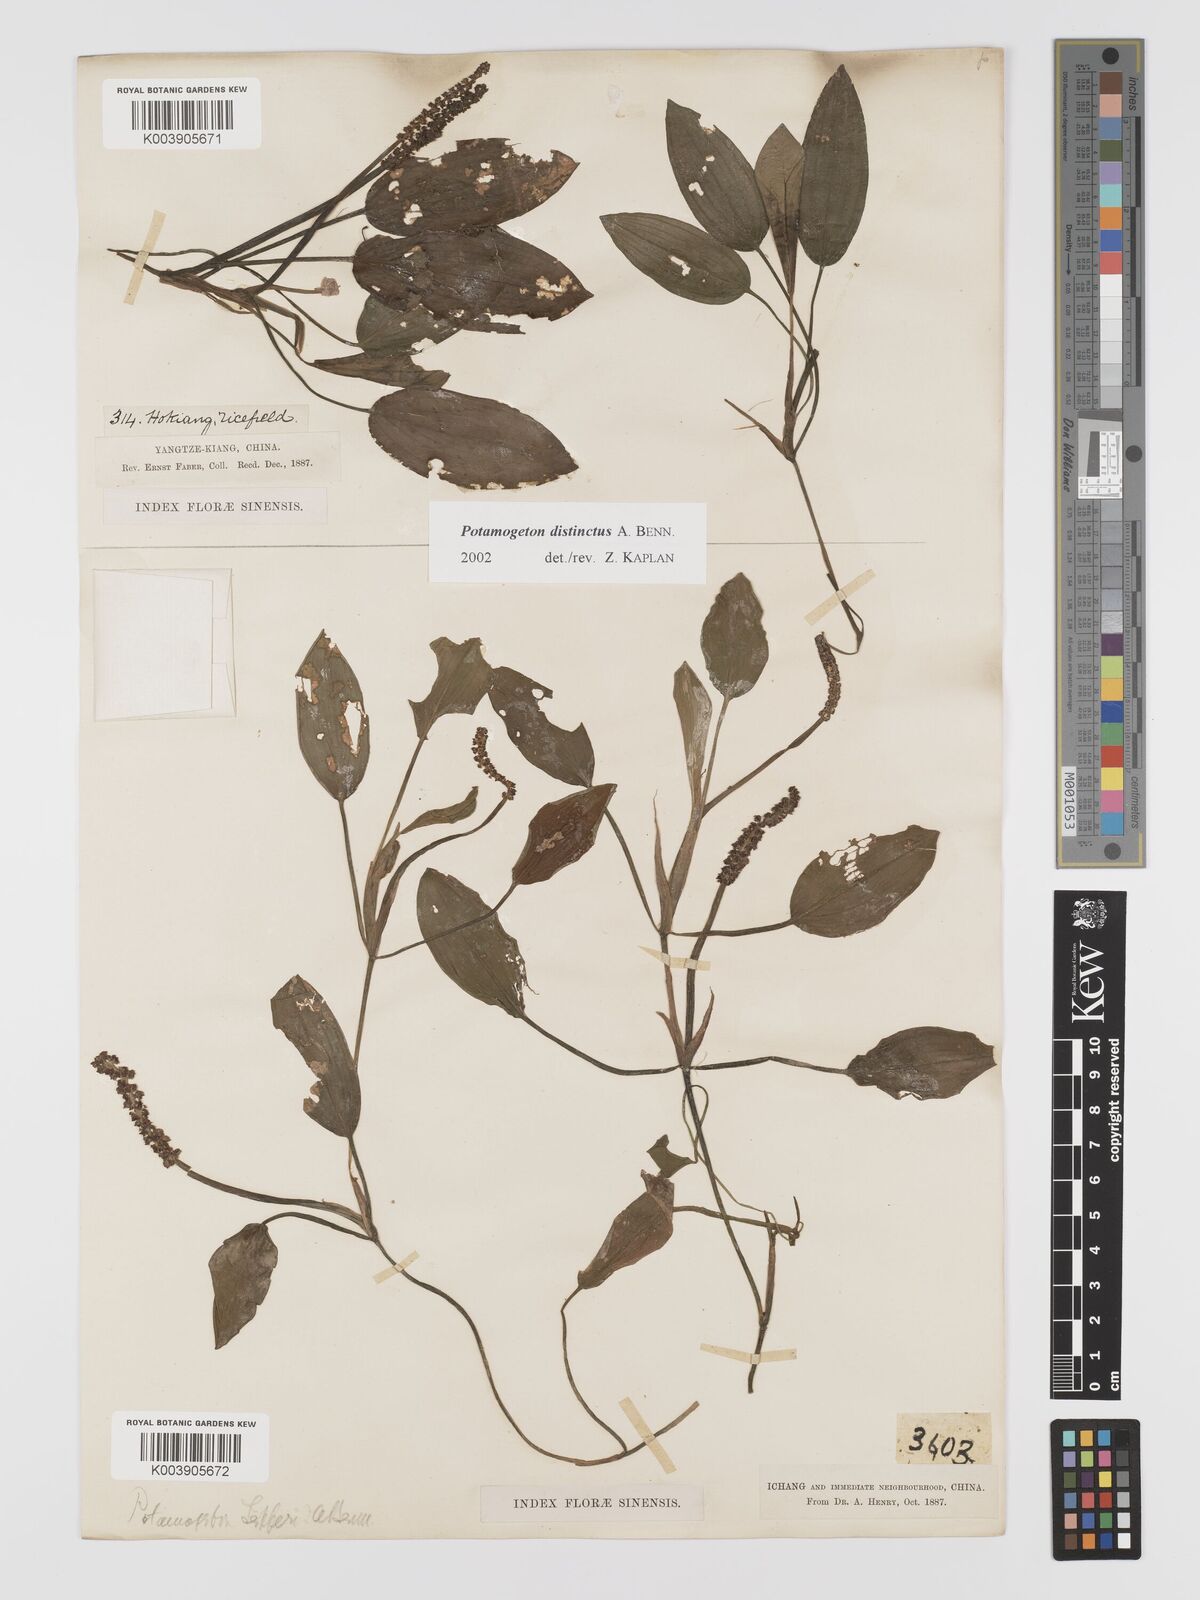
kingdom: Plantae
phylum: Tracheophyta
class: Liliopsida
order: Alismatales
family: Potamogetonaceae
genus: Potamogeton
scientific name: Potamogeton distinctus
